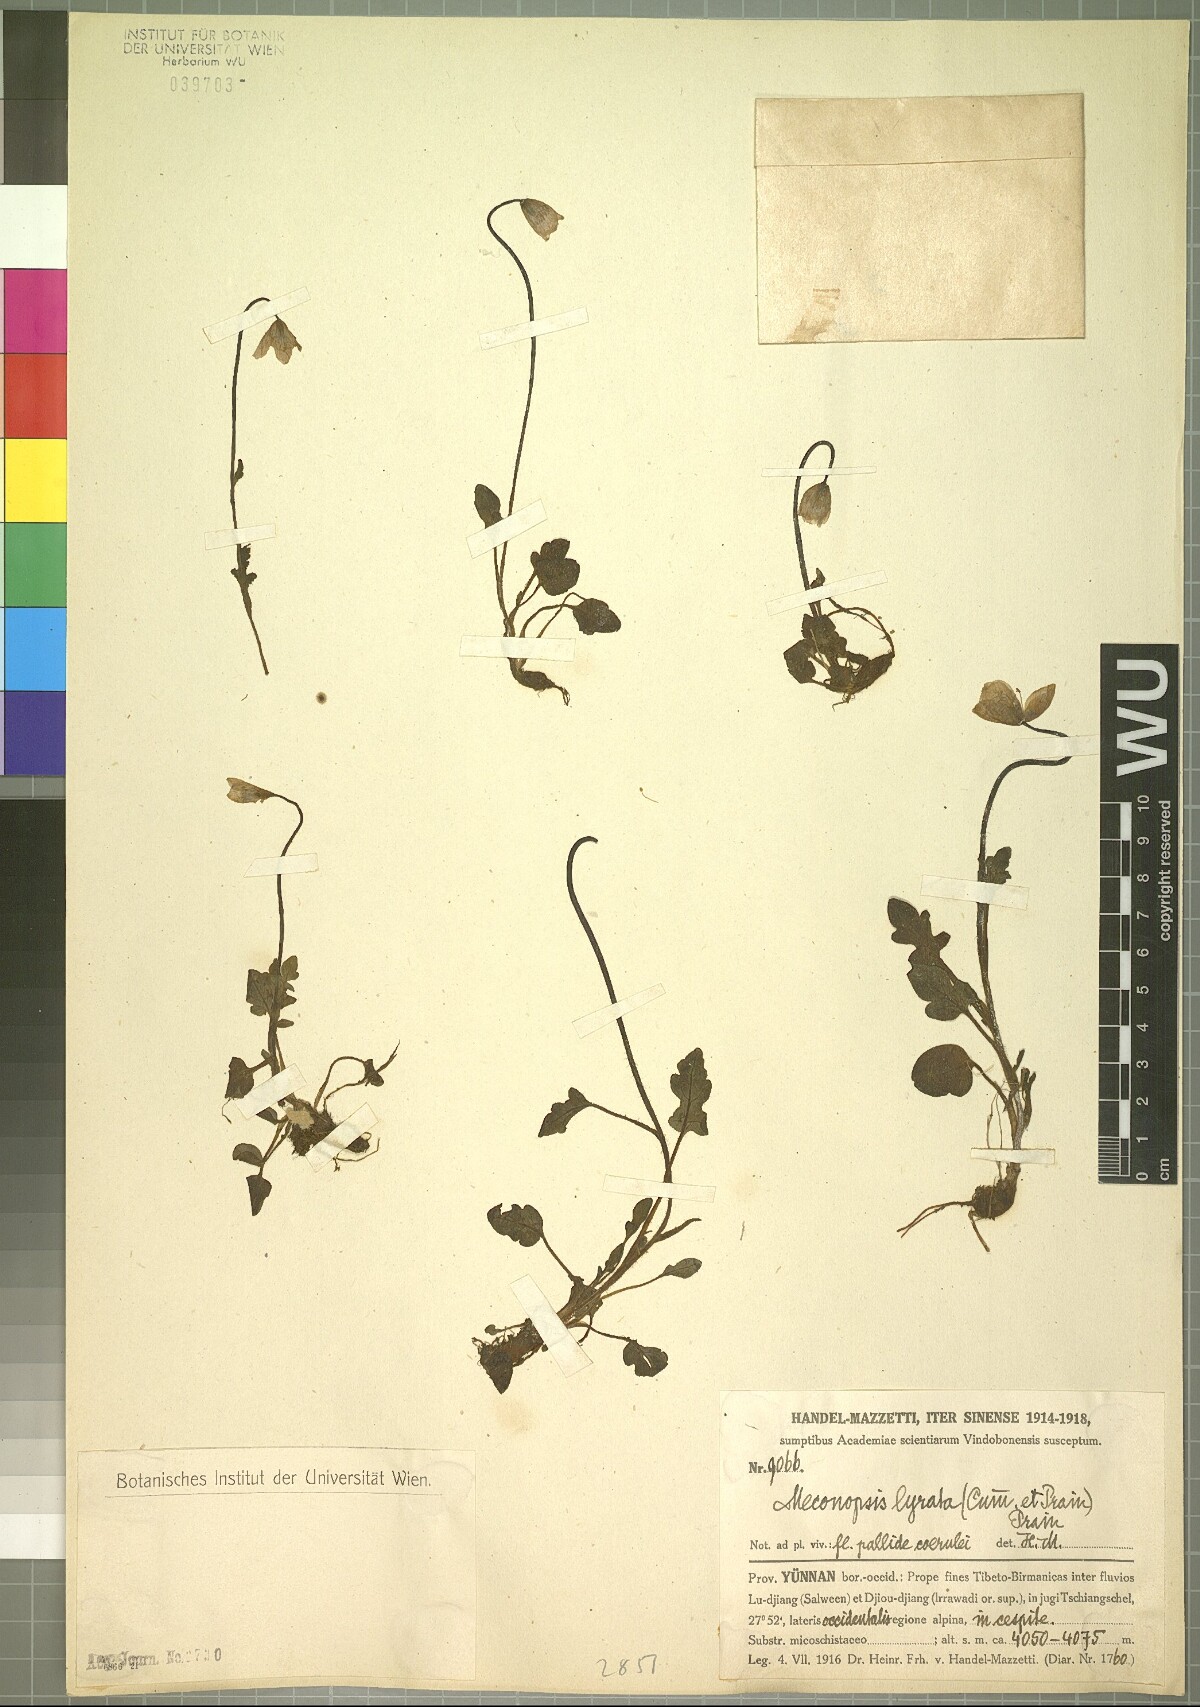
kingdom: Plantae
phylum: Tracheophyta
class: Magnoliopsida
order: Ranunculales
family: Papaveraceae
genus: Meconopsis
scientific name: Meconopsis lyrata
